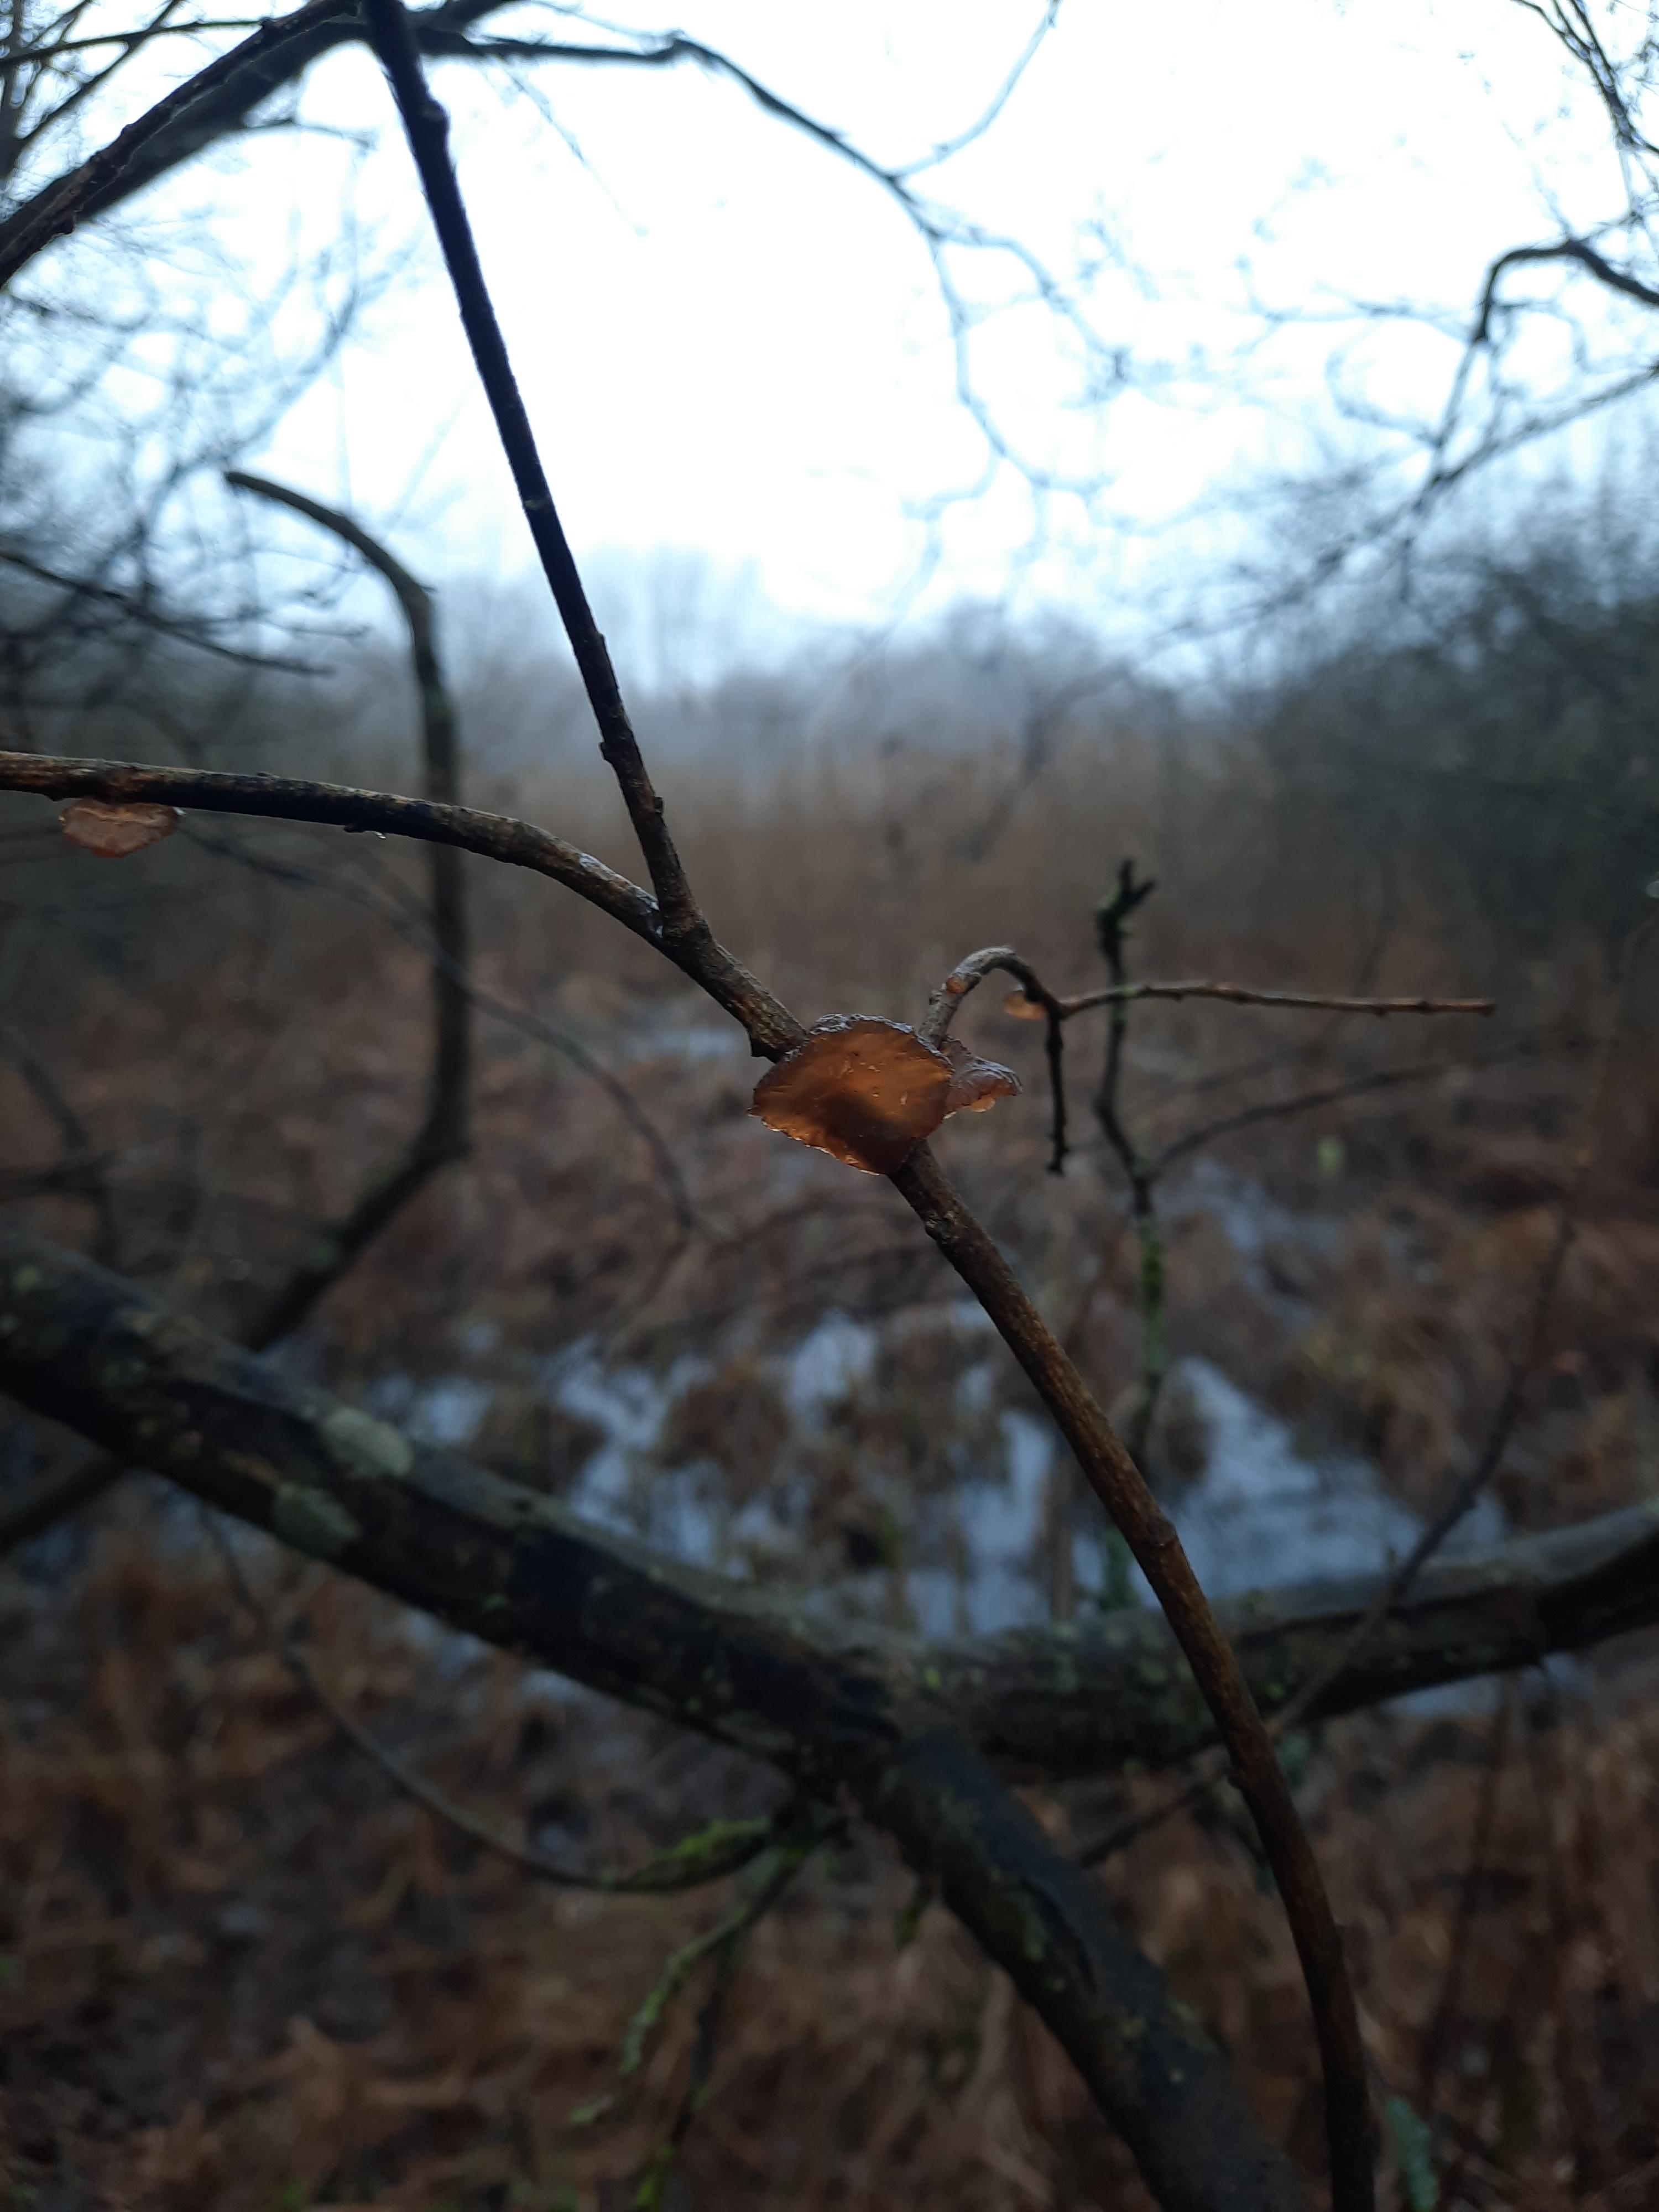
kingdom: Fungi
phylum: Basidiomycota
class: Agaricomycetes
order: Auriculariales
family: Auriculariaceae
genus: Exidia
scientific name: Exidia recisa
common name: pile-bævretop
